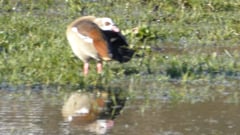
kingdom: Animalia
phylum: Chordata
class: Aves
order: Anseriformes
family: Anatidae
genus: Alopochen
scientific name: Alopochen aegyptiaca
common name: Egyptian goose
